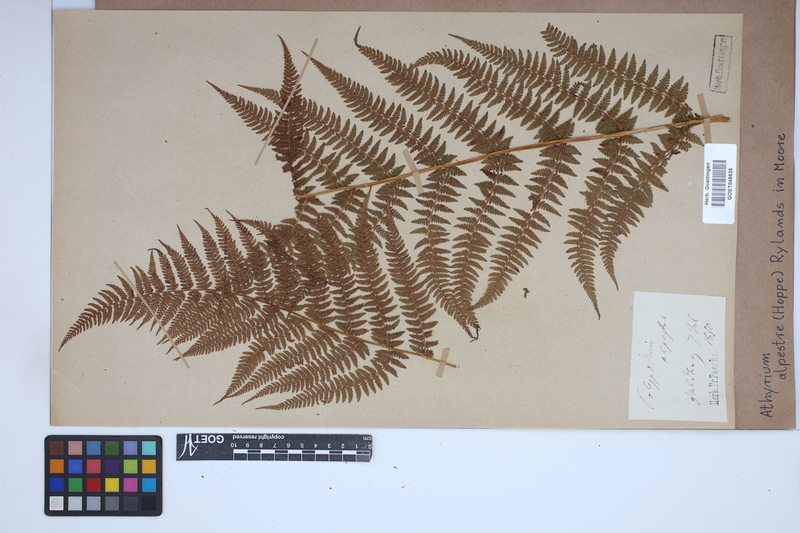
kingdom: Plantae
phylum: Tracheophyta
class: Polypodiopsida
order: Polypodiales
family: Athyriaceae
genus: Pseudathyrium
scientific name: Pseudathyrium alpestre
